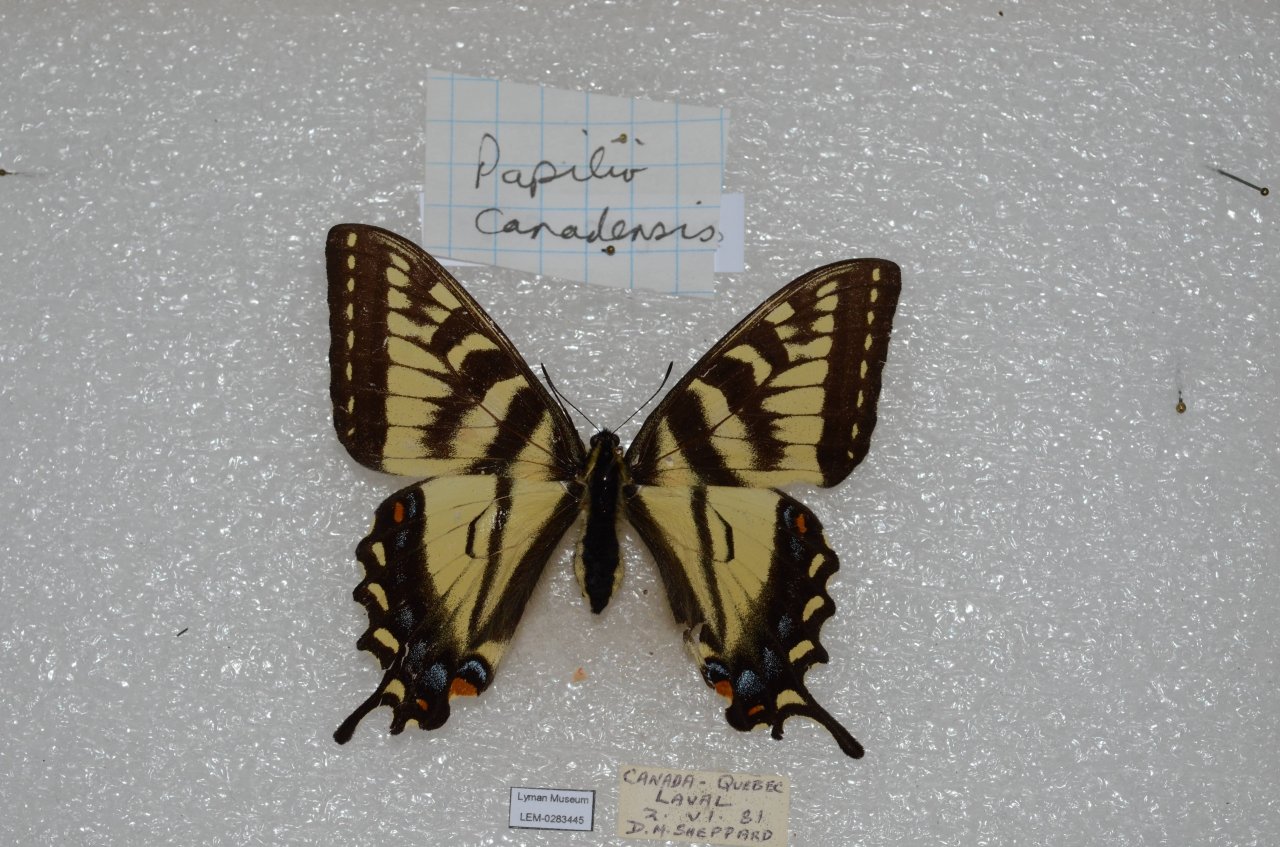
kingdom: Animalia
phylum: Arthropoda
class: Insecta
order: Lepidoptera
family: Papilionidae
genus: Pterourus
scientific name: Pterourus canadensis
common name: Canadian Tiger Swallowtail
